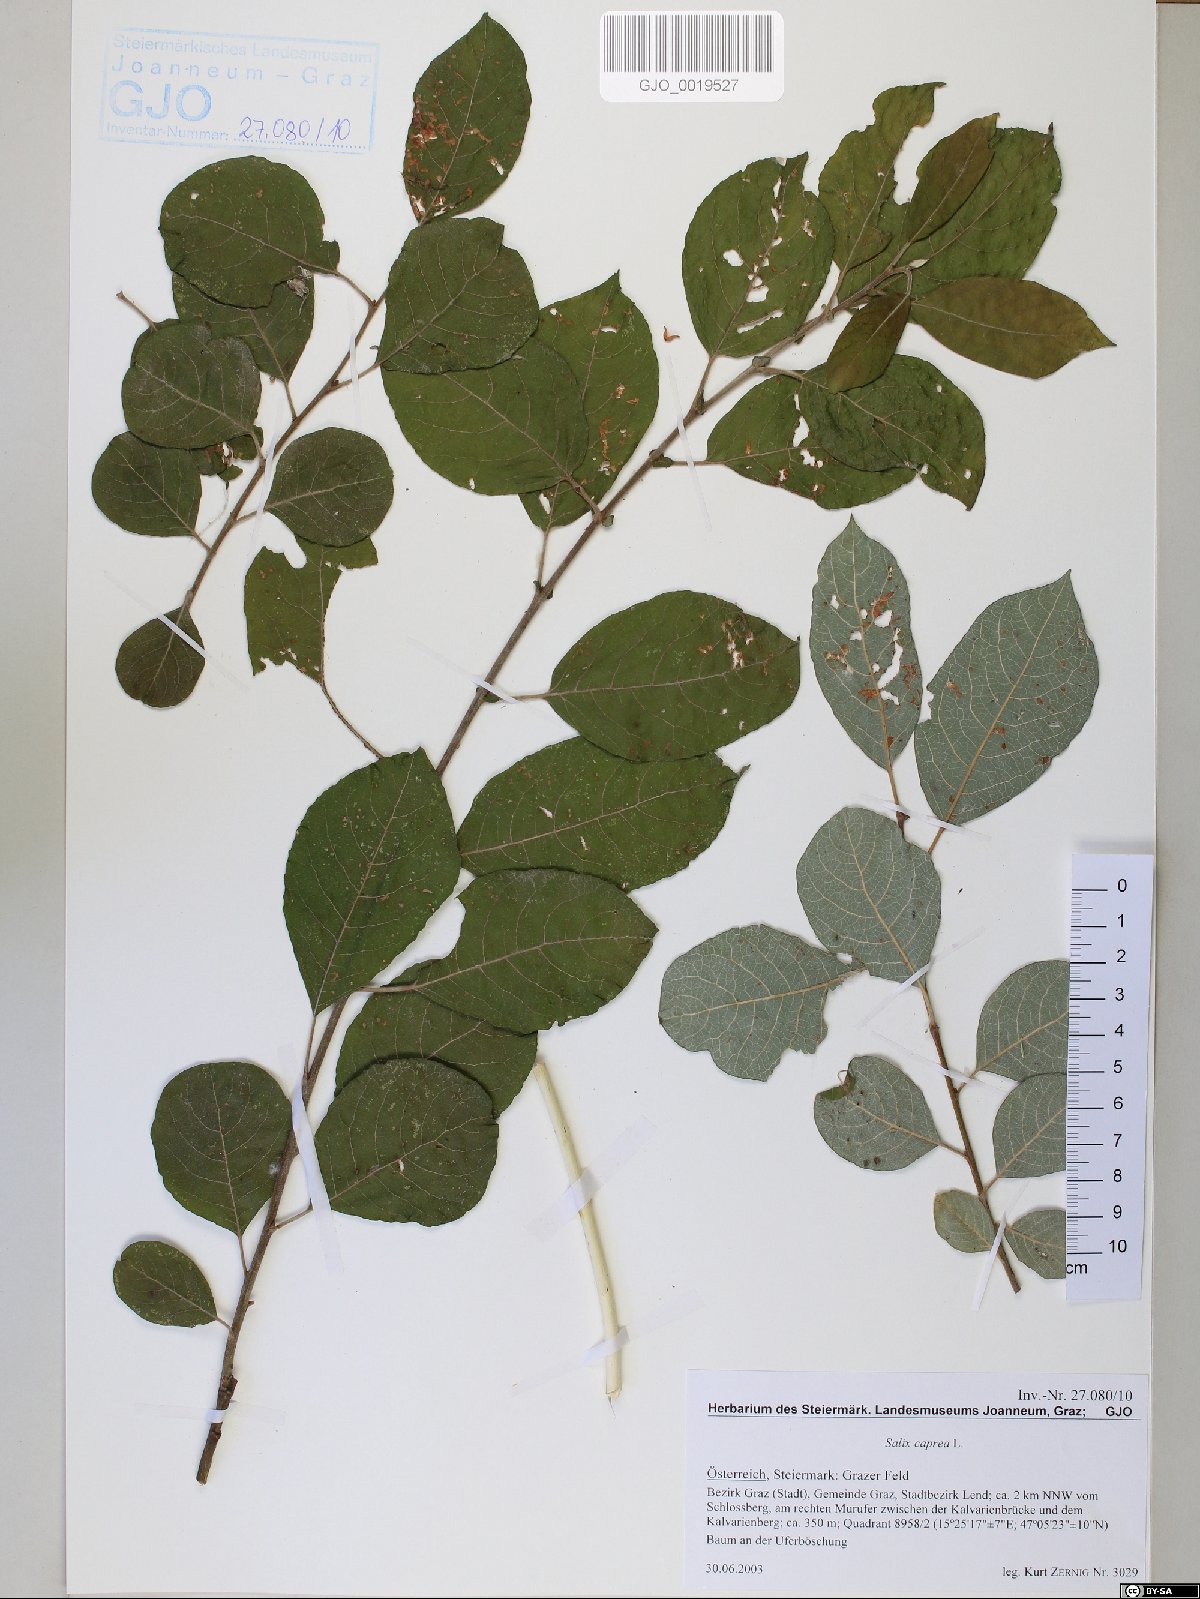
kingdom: Plantae
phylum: Tracheophyta
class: Magnoliopsida
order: Malpighiales
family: Salicaceae
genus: Salix
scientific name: Salix caprea
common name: Goat willow
